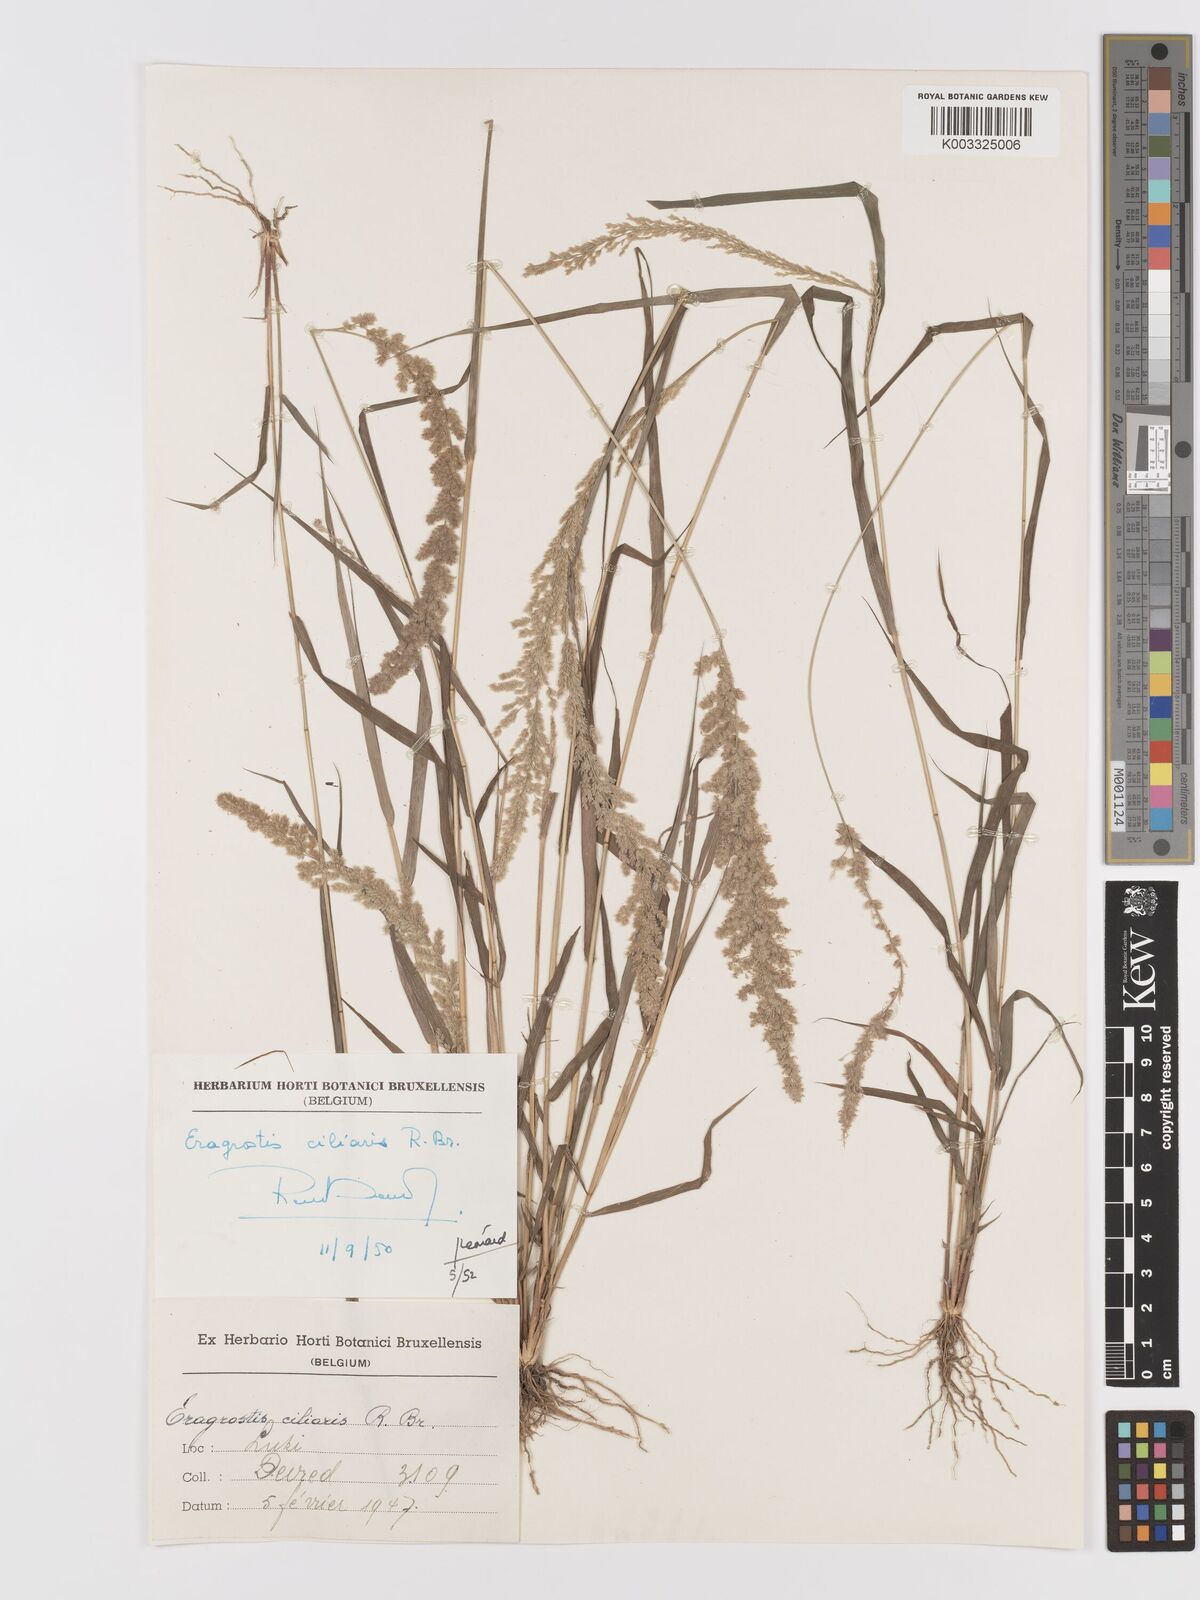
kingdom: Plantae
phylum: Tracheophyta
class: Liliopsida
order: Poales
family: Poaceae
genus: Eragrostis
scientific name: Eragrostis ciliaris
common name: Gophertail lovegrass
